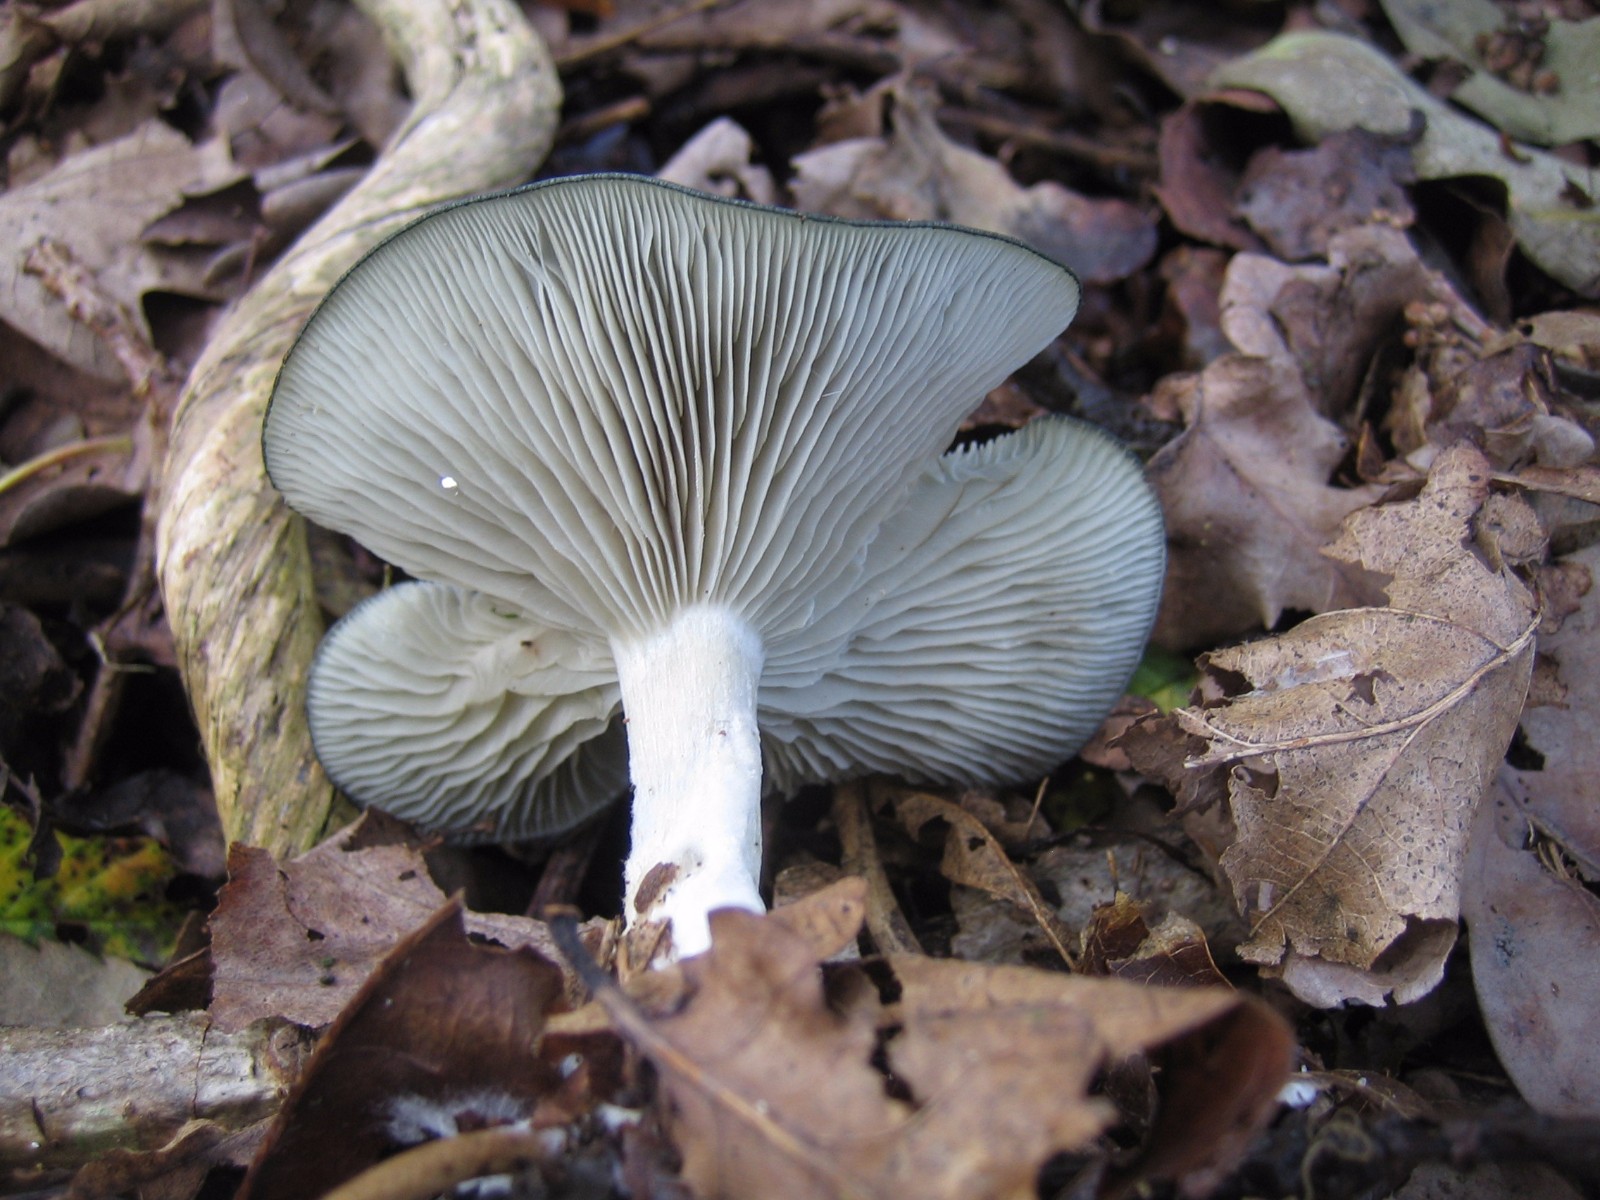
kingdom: Fungi
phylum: Basidiomycota
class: Agaricomycetes
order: Agaricales
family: Tricholomataceae
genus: Clitocybe
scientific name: Clitocybe odora
